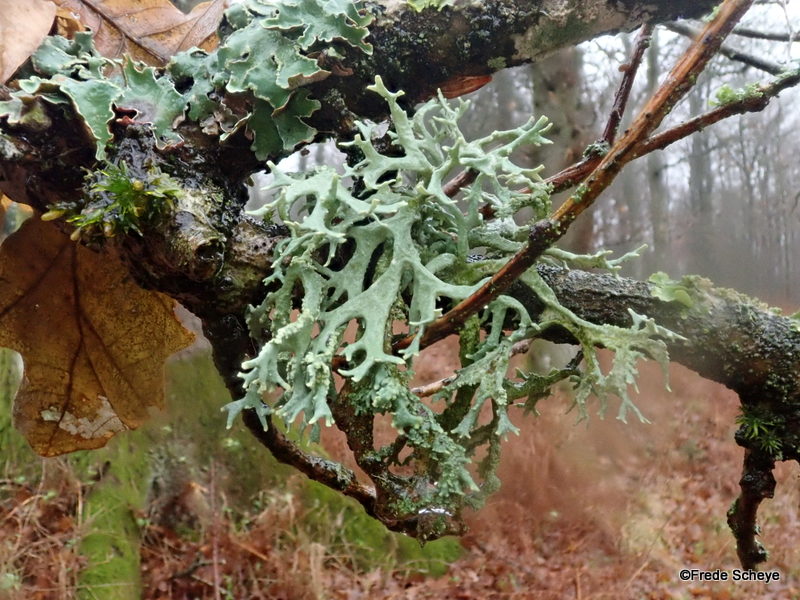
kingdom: Fungi
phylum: Ascomycota
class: Lecanoromycetes
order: Lecanorales
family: Parmeliaceae
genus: Evernia
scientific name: Evernia prunastri
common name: almindelig slåenlav
